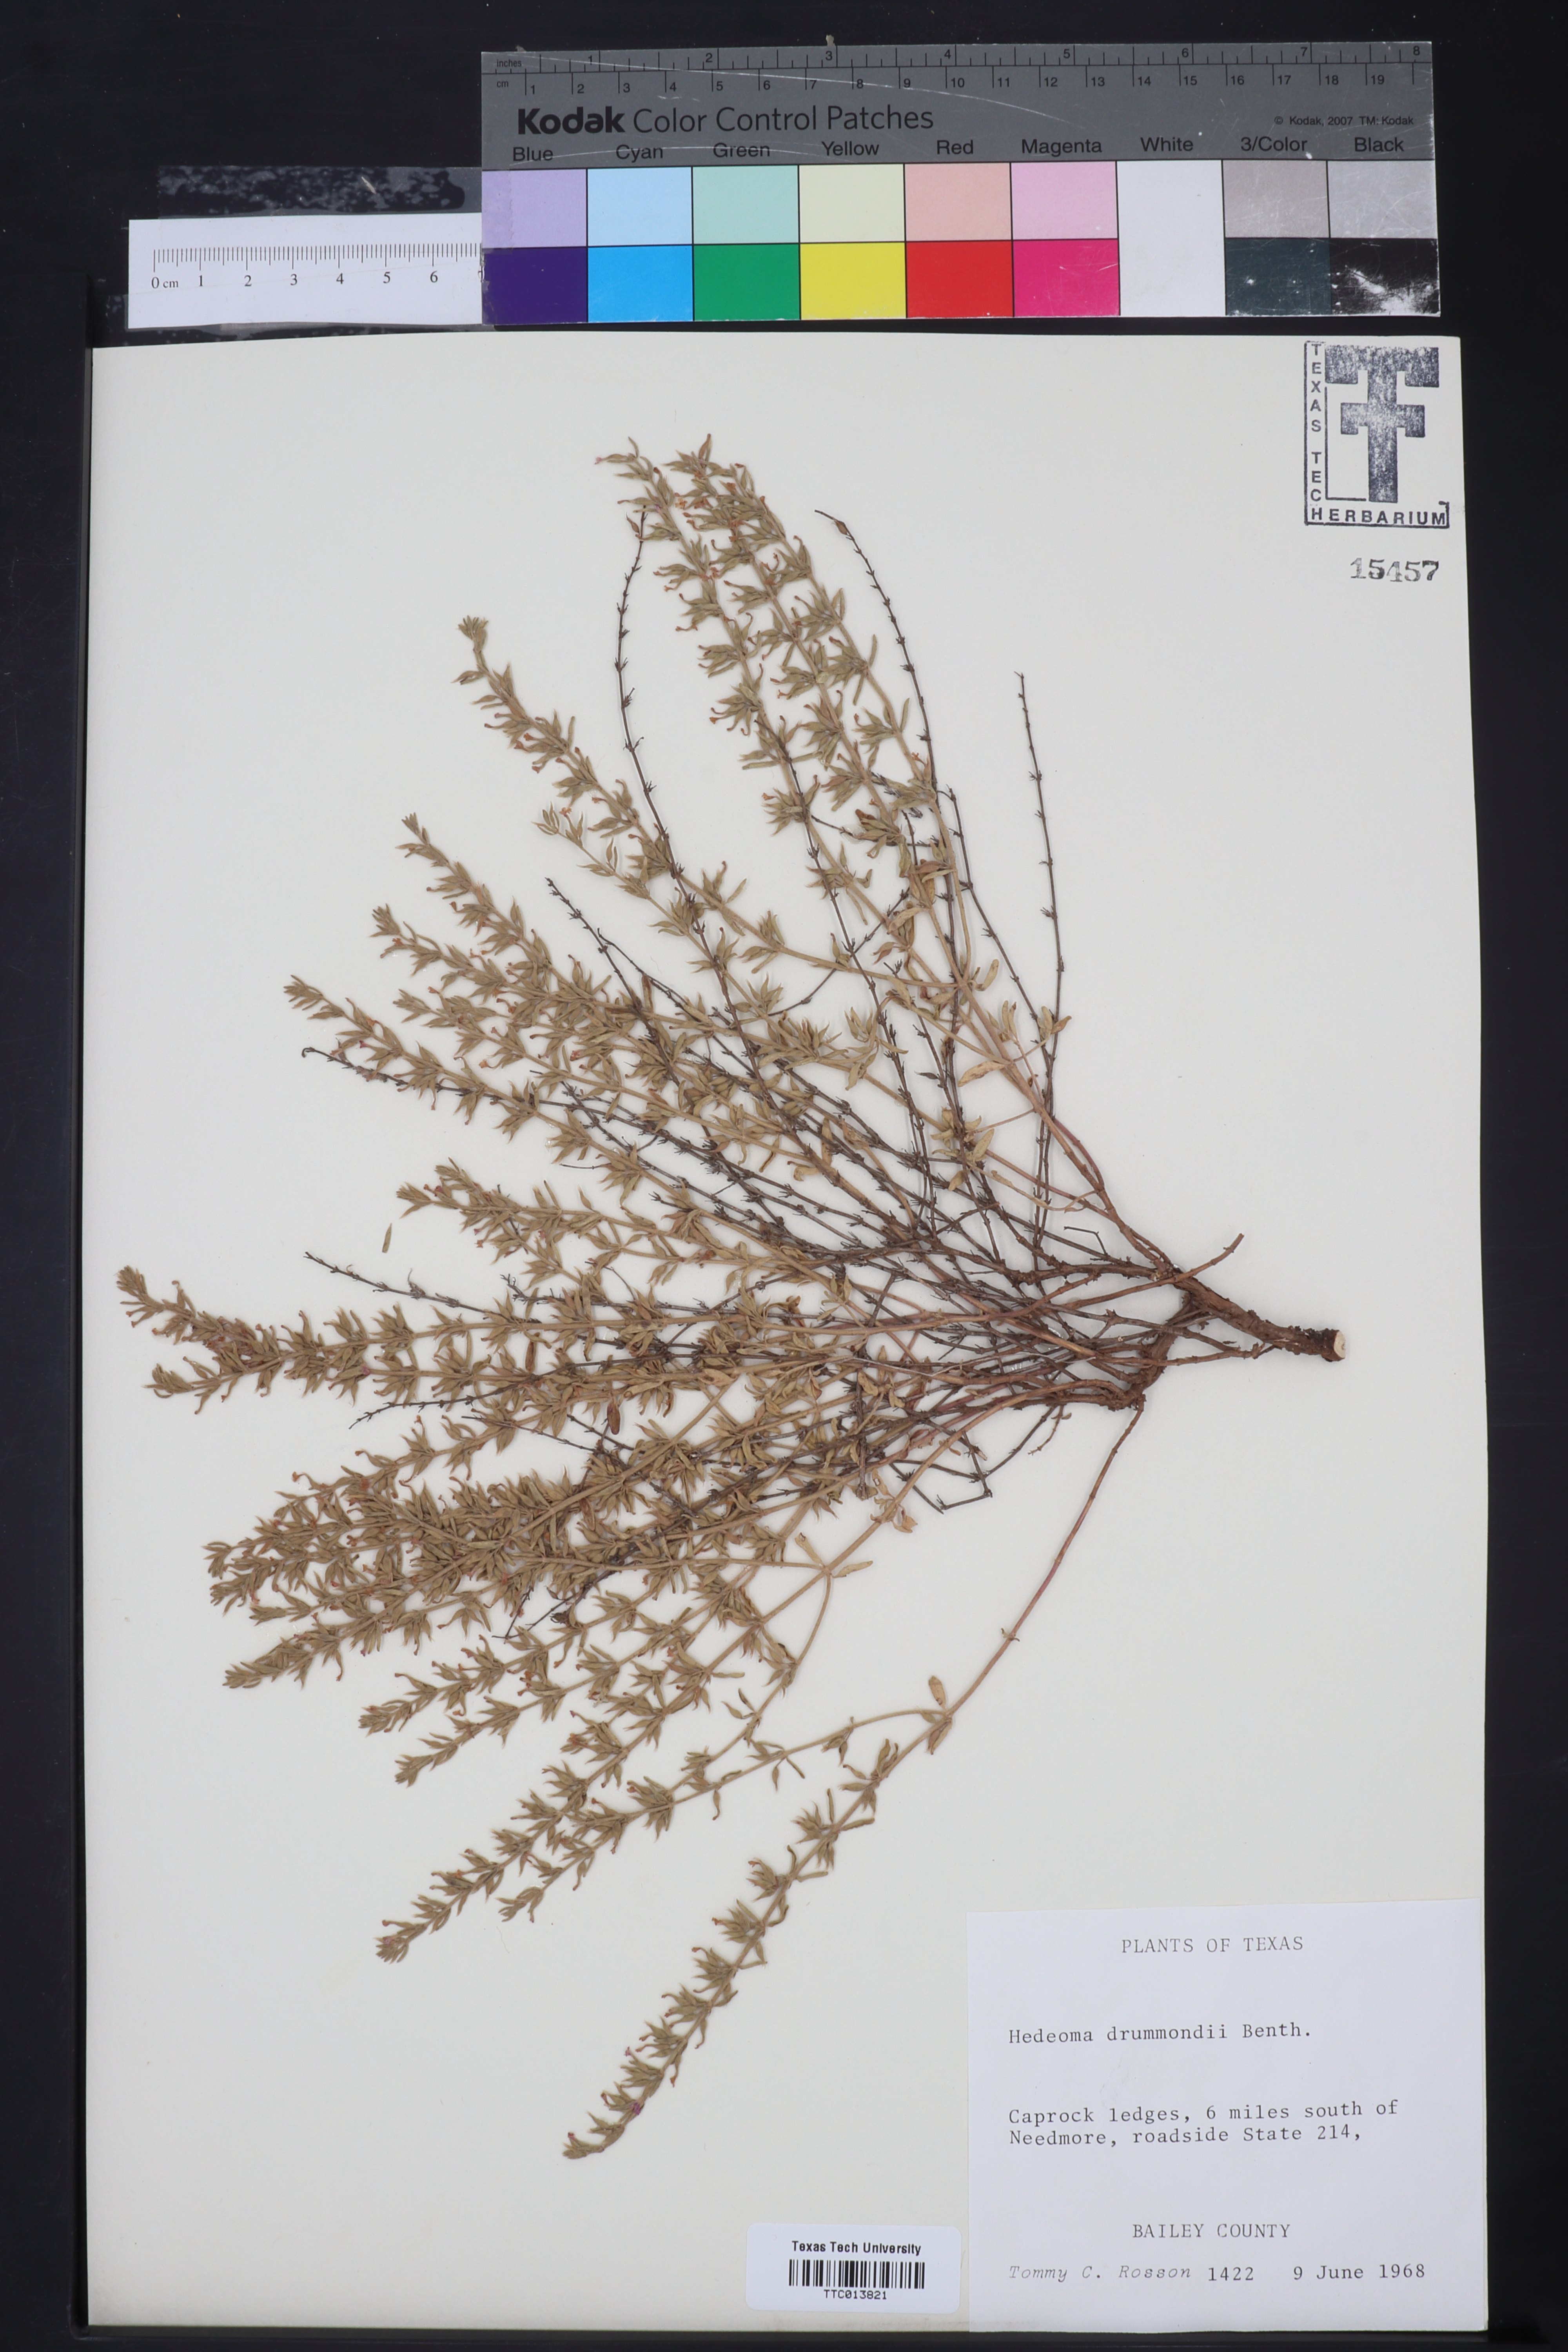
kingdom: Plantae
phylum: Tracheophyta
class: Magnoliopsida
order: Lamiales
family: Lamiaceae
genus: Hedeoma
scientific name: Hedeoma drummondii
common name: New mexico pennyroyal
